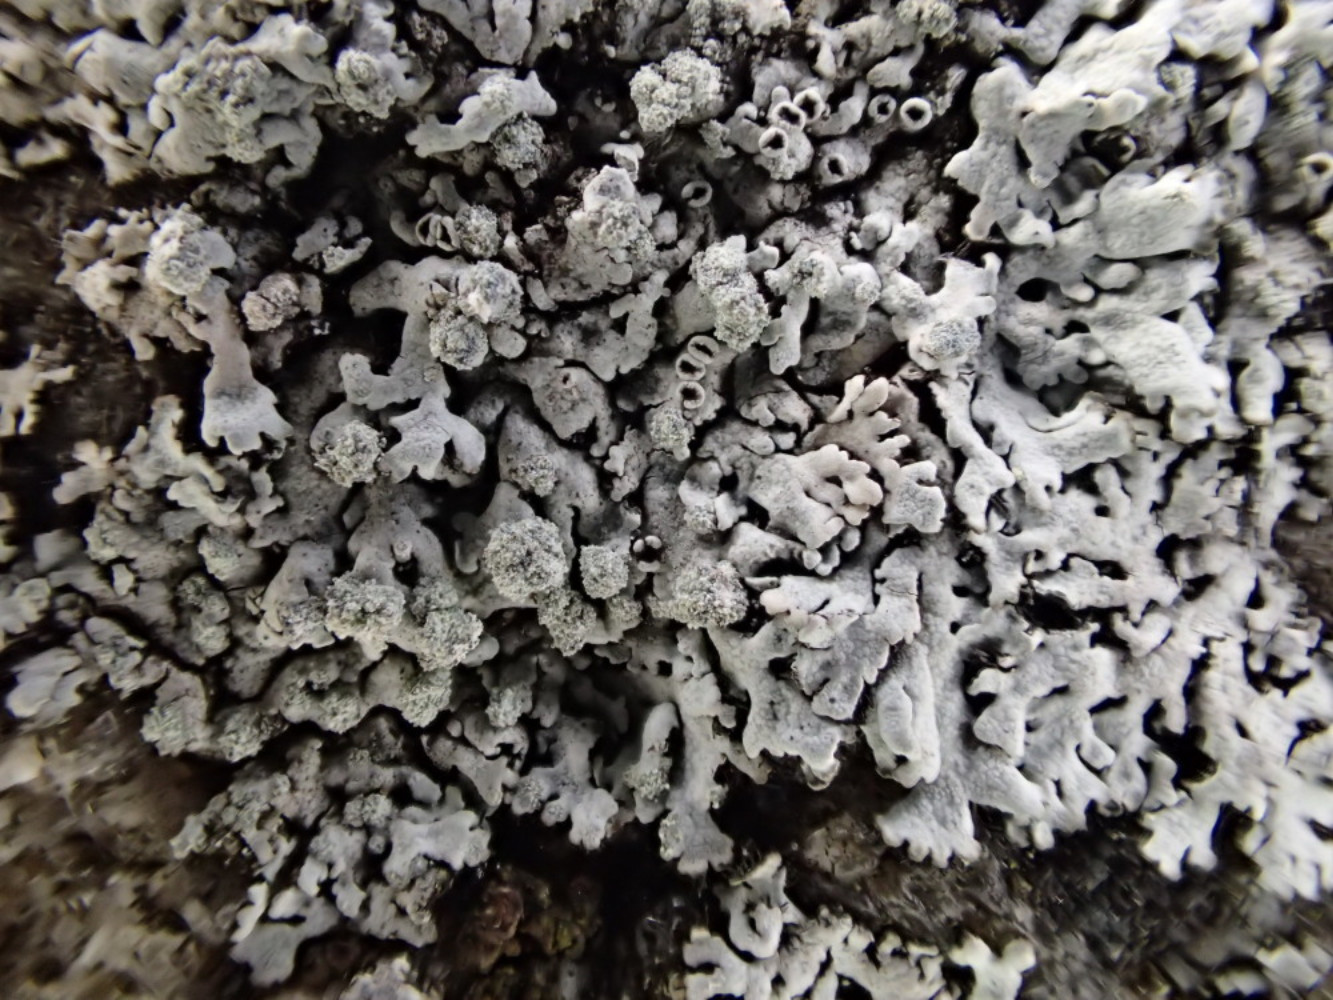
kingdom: Fungi
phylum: Ascomycota
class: Lecanoromycetes
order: Caliciales
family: Physciaceae
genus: Physcia
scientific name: Physcia caesia
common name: blågrå rosetlav
